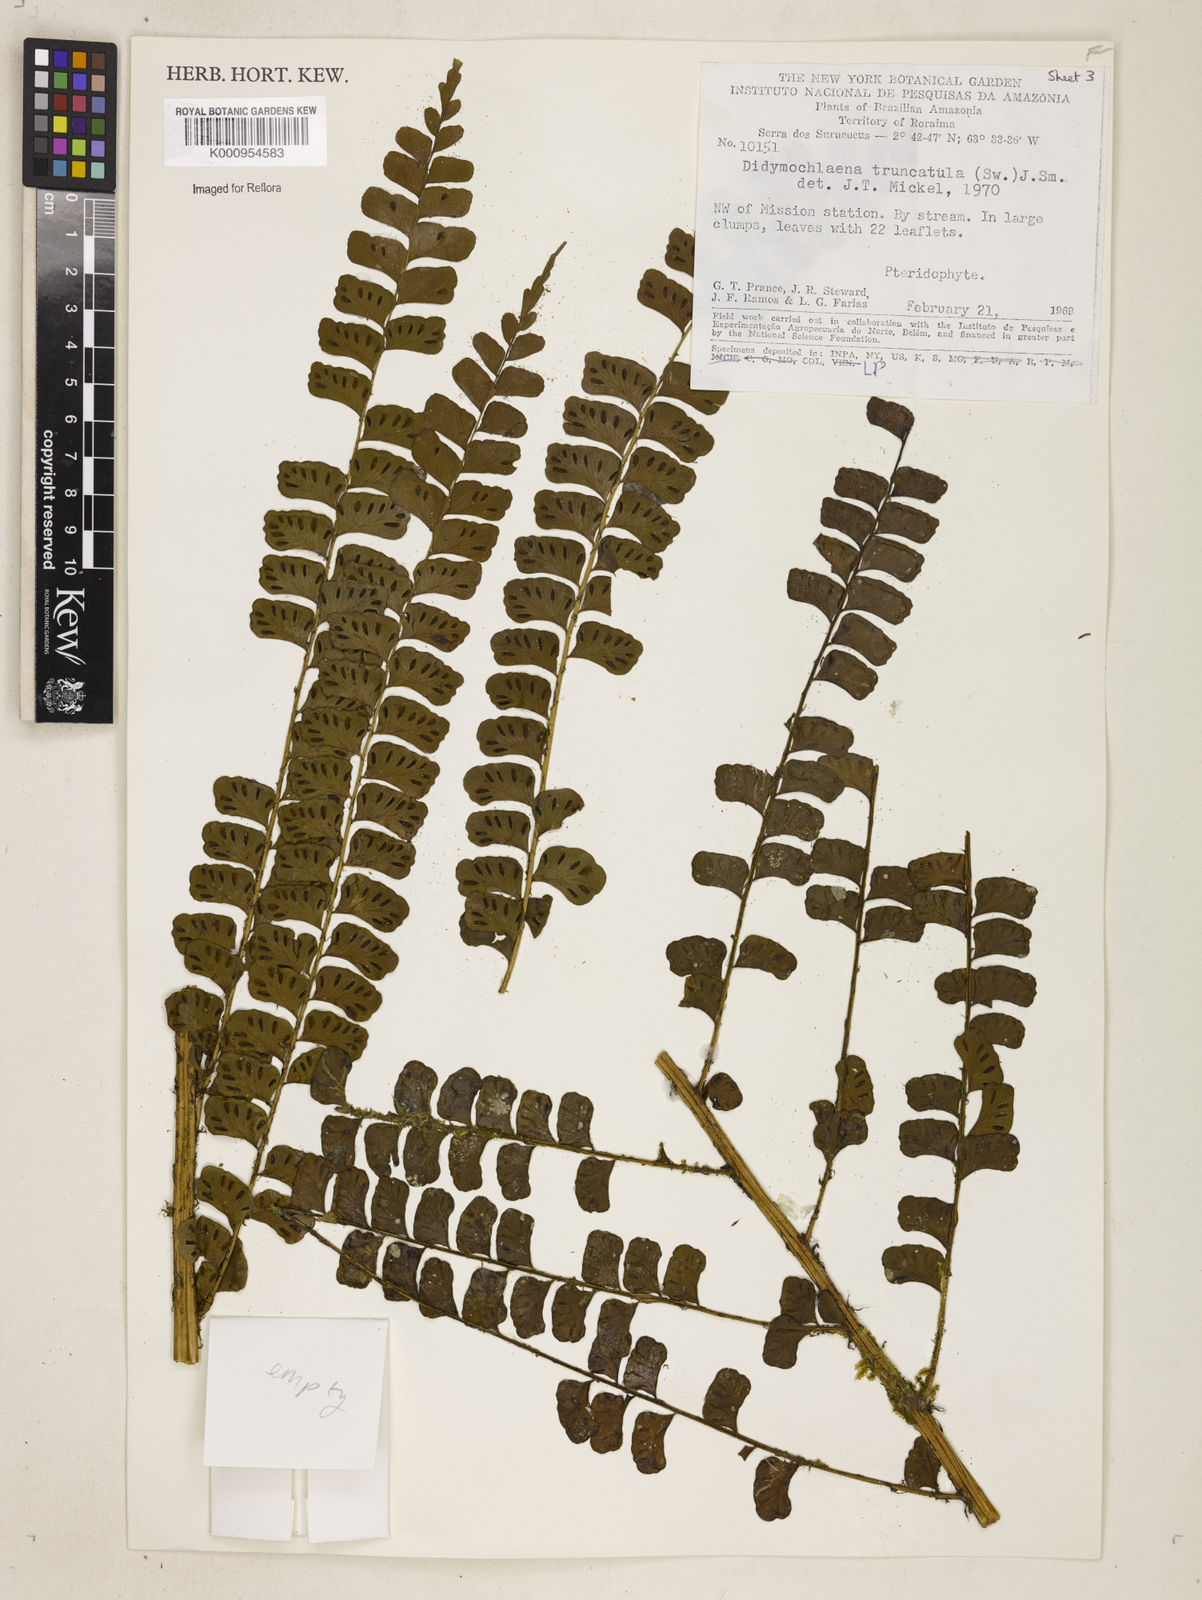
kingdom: Plantae
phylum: Tracheophyta
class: Polypodiopsida
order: Polypodiales
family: Didymochlaenaceae
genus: Didymochlaena
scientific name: Didymochlaena truncatula
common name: Mahogany fern
